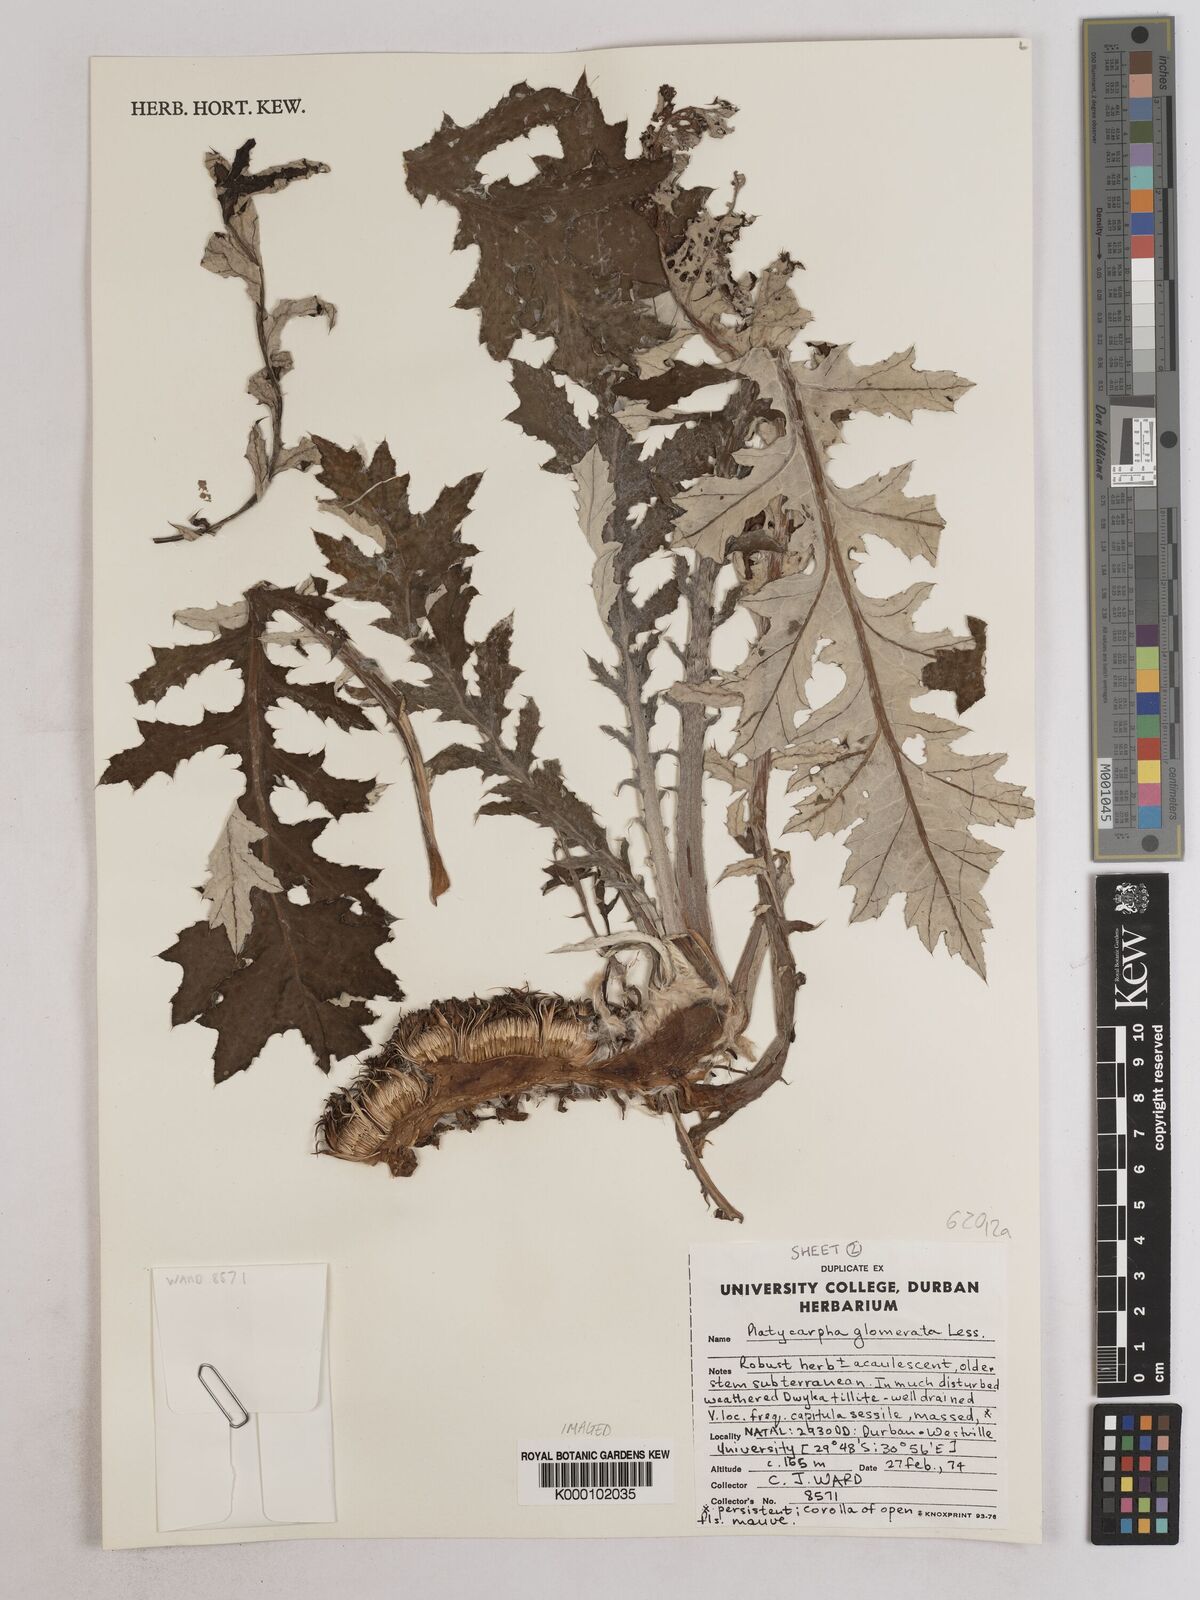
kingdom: Plantae
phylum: Tracheophyta
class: Magnoliopsida
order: Asterales
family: Asteraceae
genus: Platycarpha
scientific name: Platycarpha glomerata
